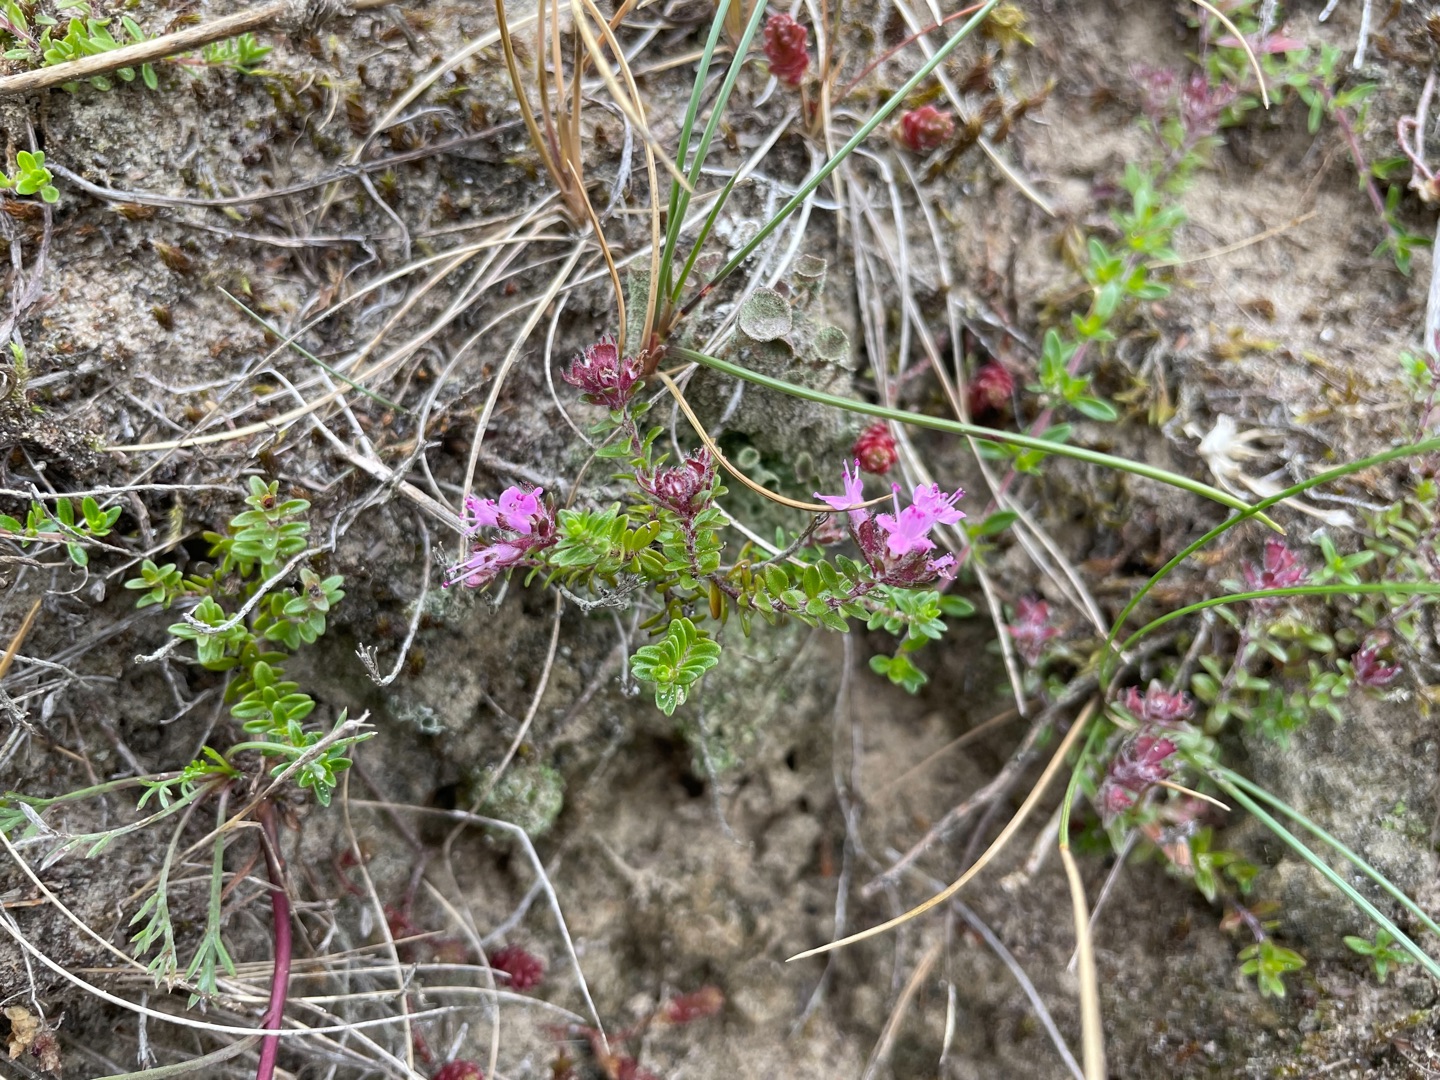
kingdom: Plantae
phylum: Tracheophyta
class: Magnoliopsida
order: Lamiales
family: Lamiaceae
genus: Thymus
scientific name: Thymus serpyllum
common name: Smalbladet timian
